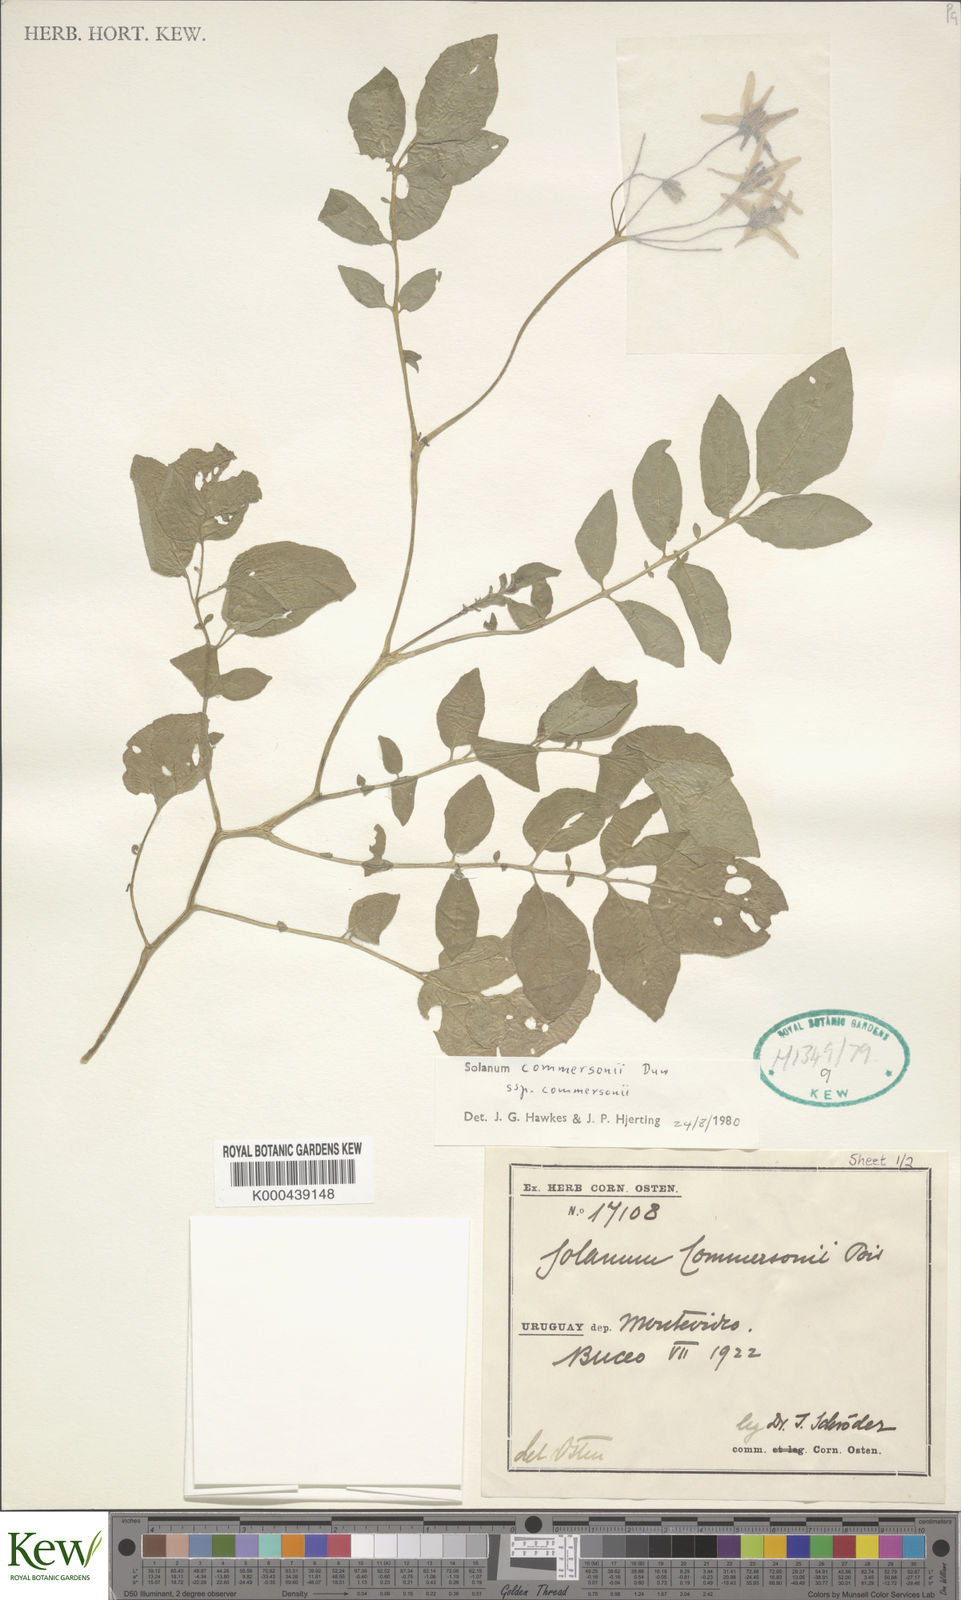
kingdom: Plantae
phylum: Tracheophyta
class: Magnoliopsida
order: Solanales
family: Solanaceae
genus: Solanum
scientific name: Solanum commersonii
